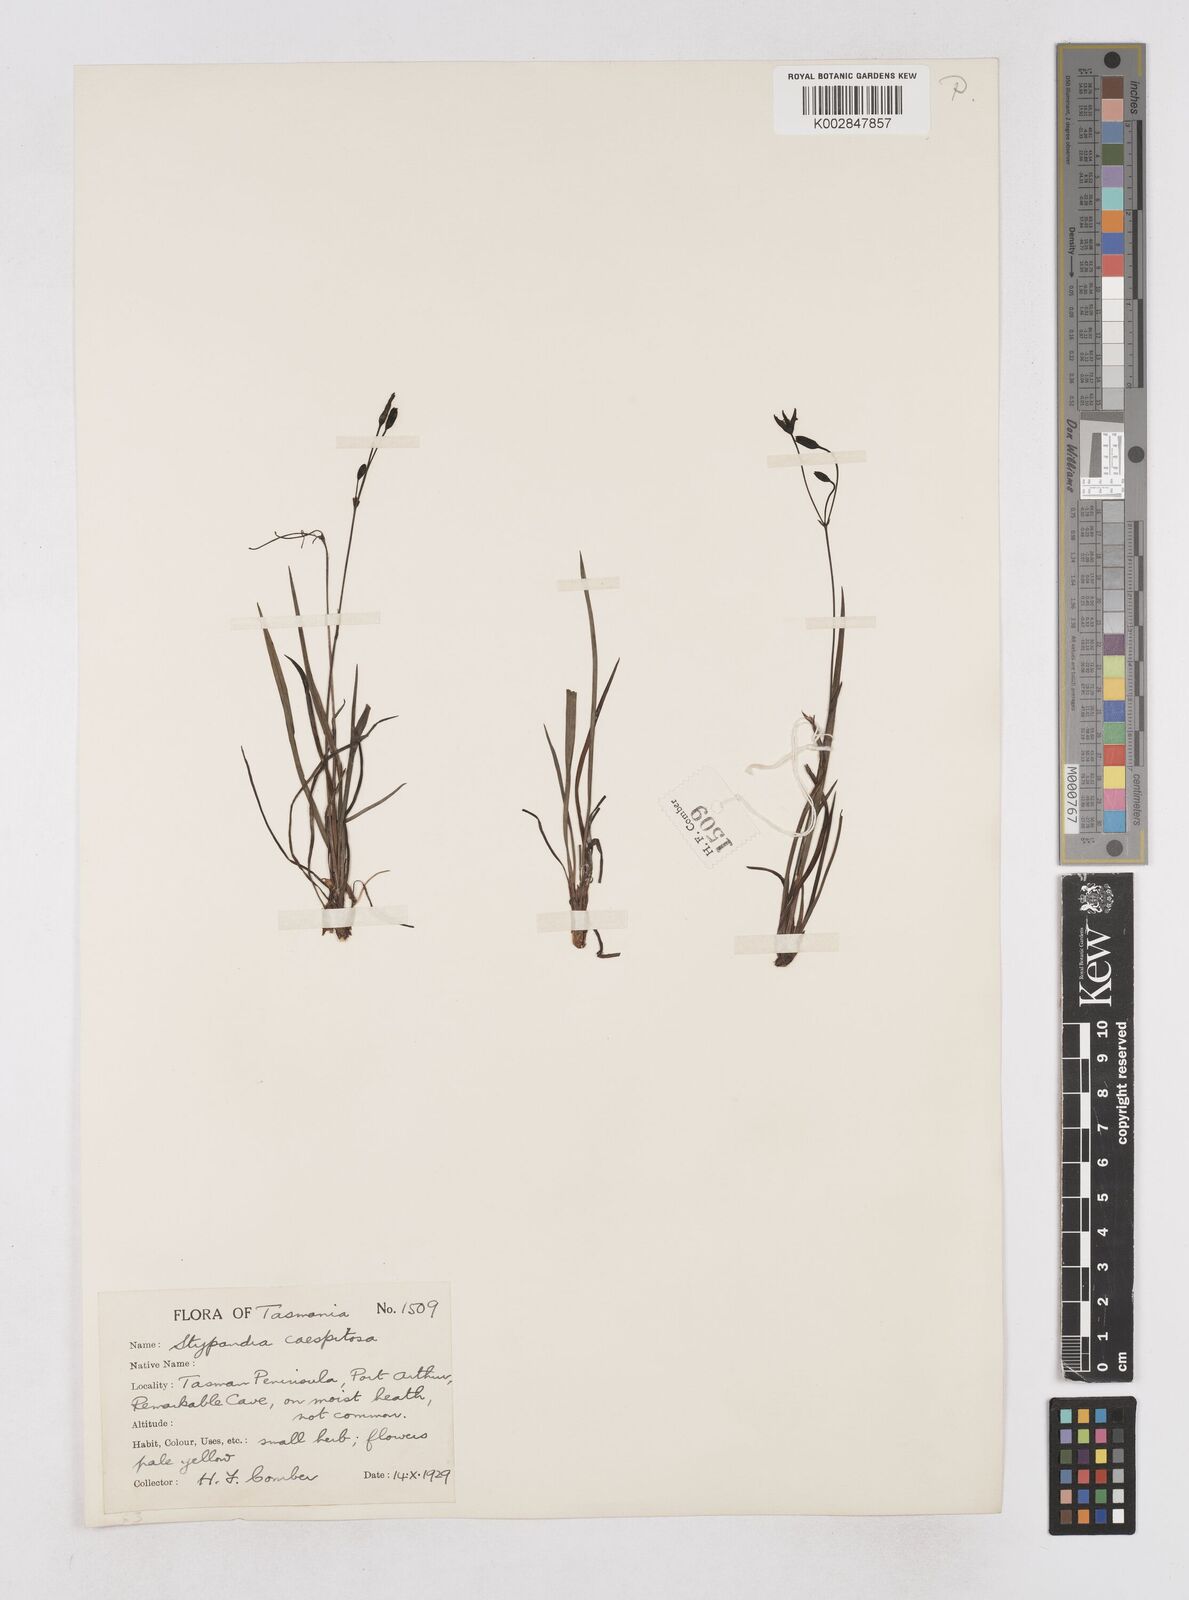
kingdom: Plantae
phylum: Tracheophyta
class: Liliopsida
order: Asparagales
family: Asphodelaceae
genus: Thelionema
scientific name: Thelionema caespitosum
